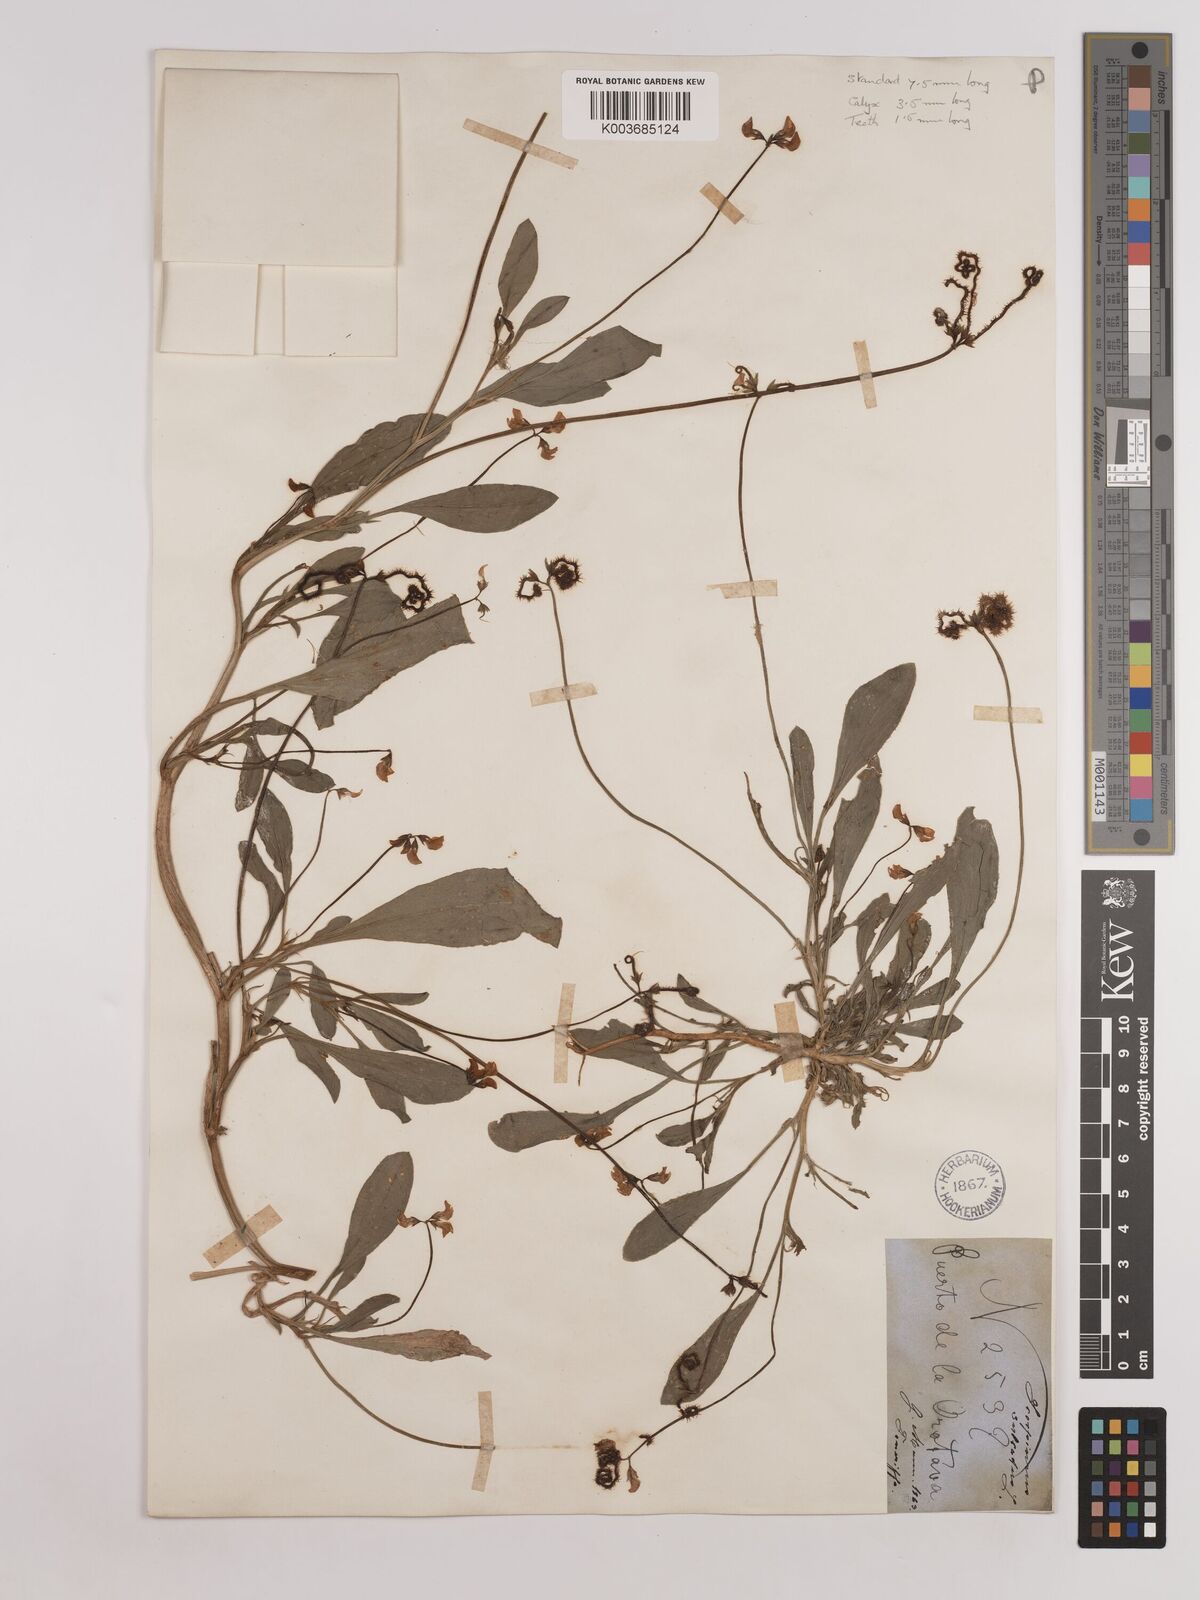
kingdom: Plantae
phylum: Tracheophyta
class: Magnoliopsida
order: Fabales
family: Fabaceae
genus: Scorpiurus
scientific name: Scorpiurus muricatus
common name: Caterpillar-plant
